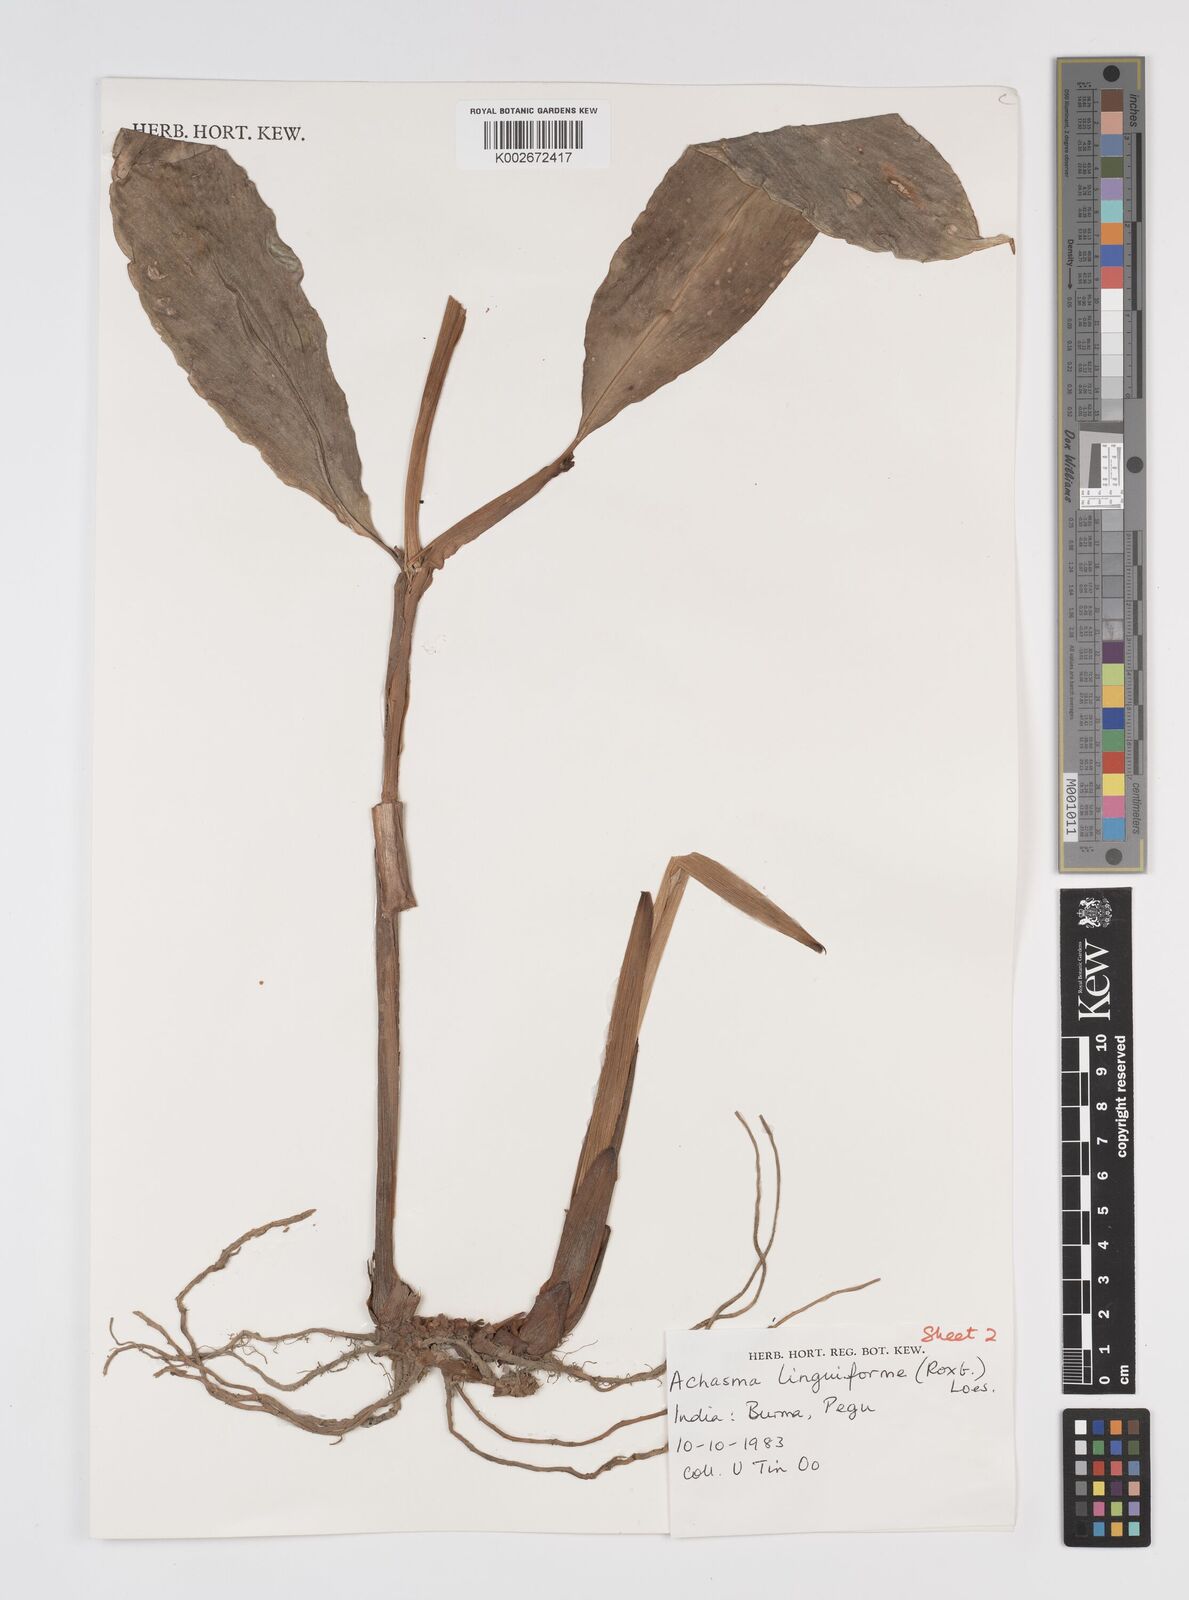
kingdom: Plantae
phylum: Tracheophyta
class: Liliopsida
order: Zingiberales
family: Zingiberaceae
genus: Etlingera
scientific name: Etlingera linguiformis
